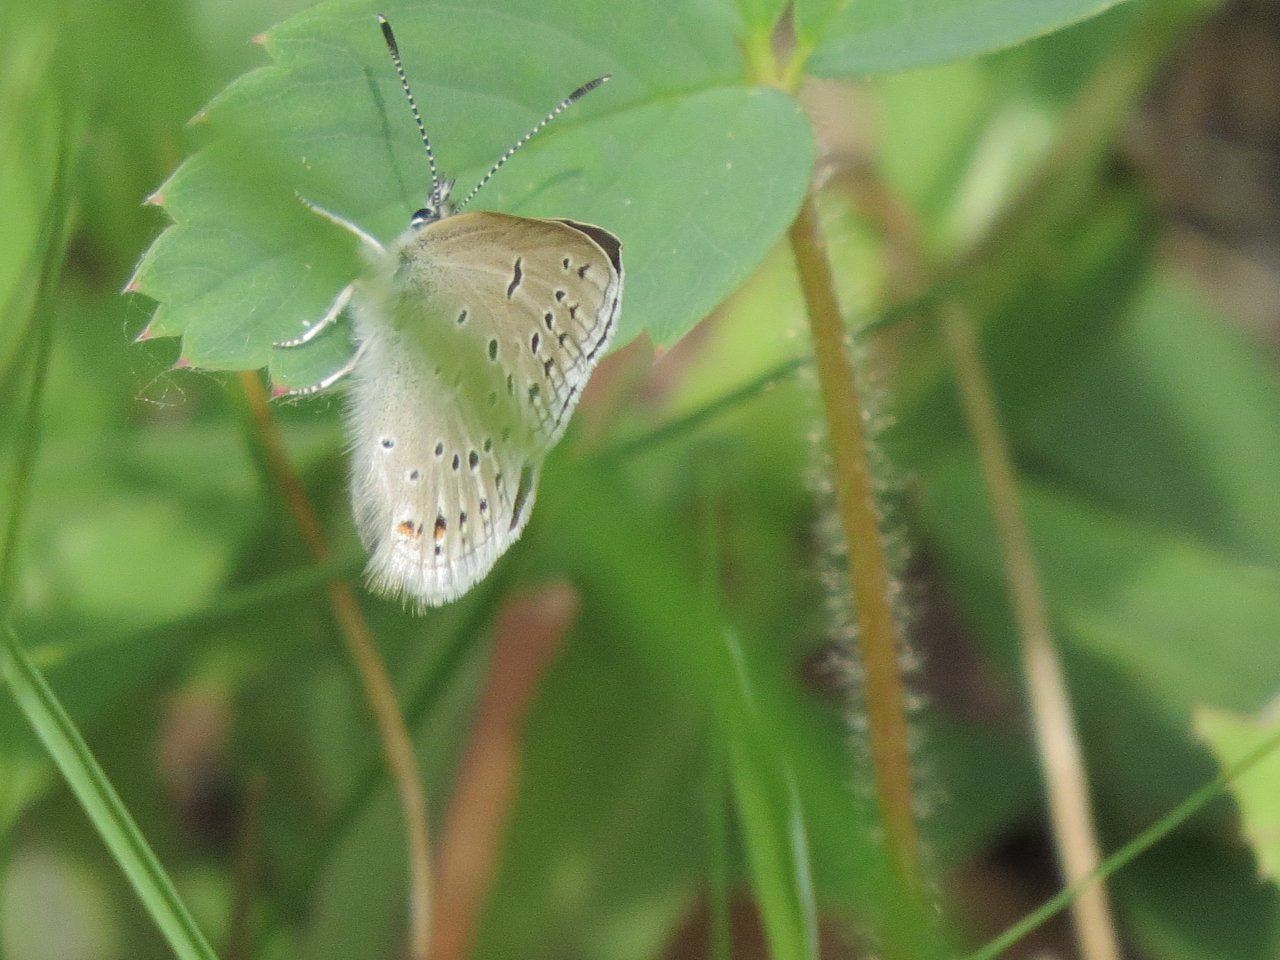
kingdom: Animalia
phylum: Arthropoda
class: Insecta
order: Lepidoptera
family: Lycaenidae
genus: Plebejus
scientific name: Plebejus saepiolus
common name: Greenish Blue
